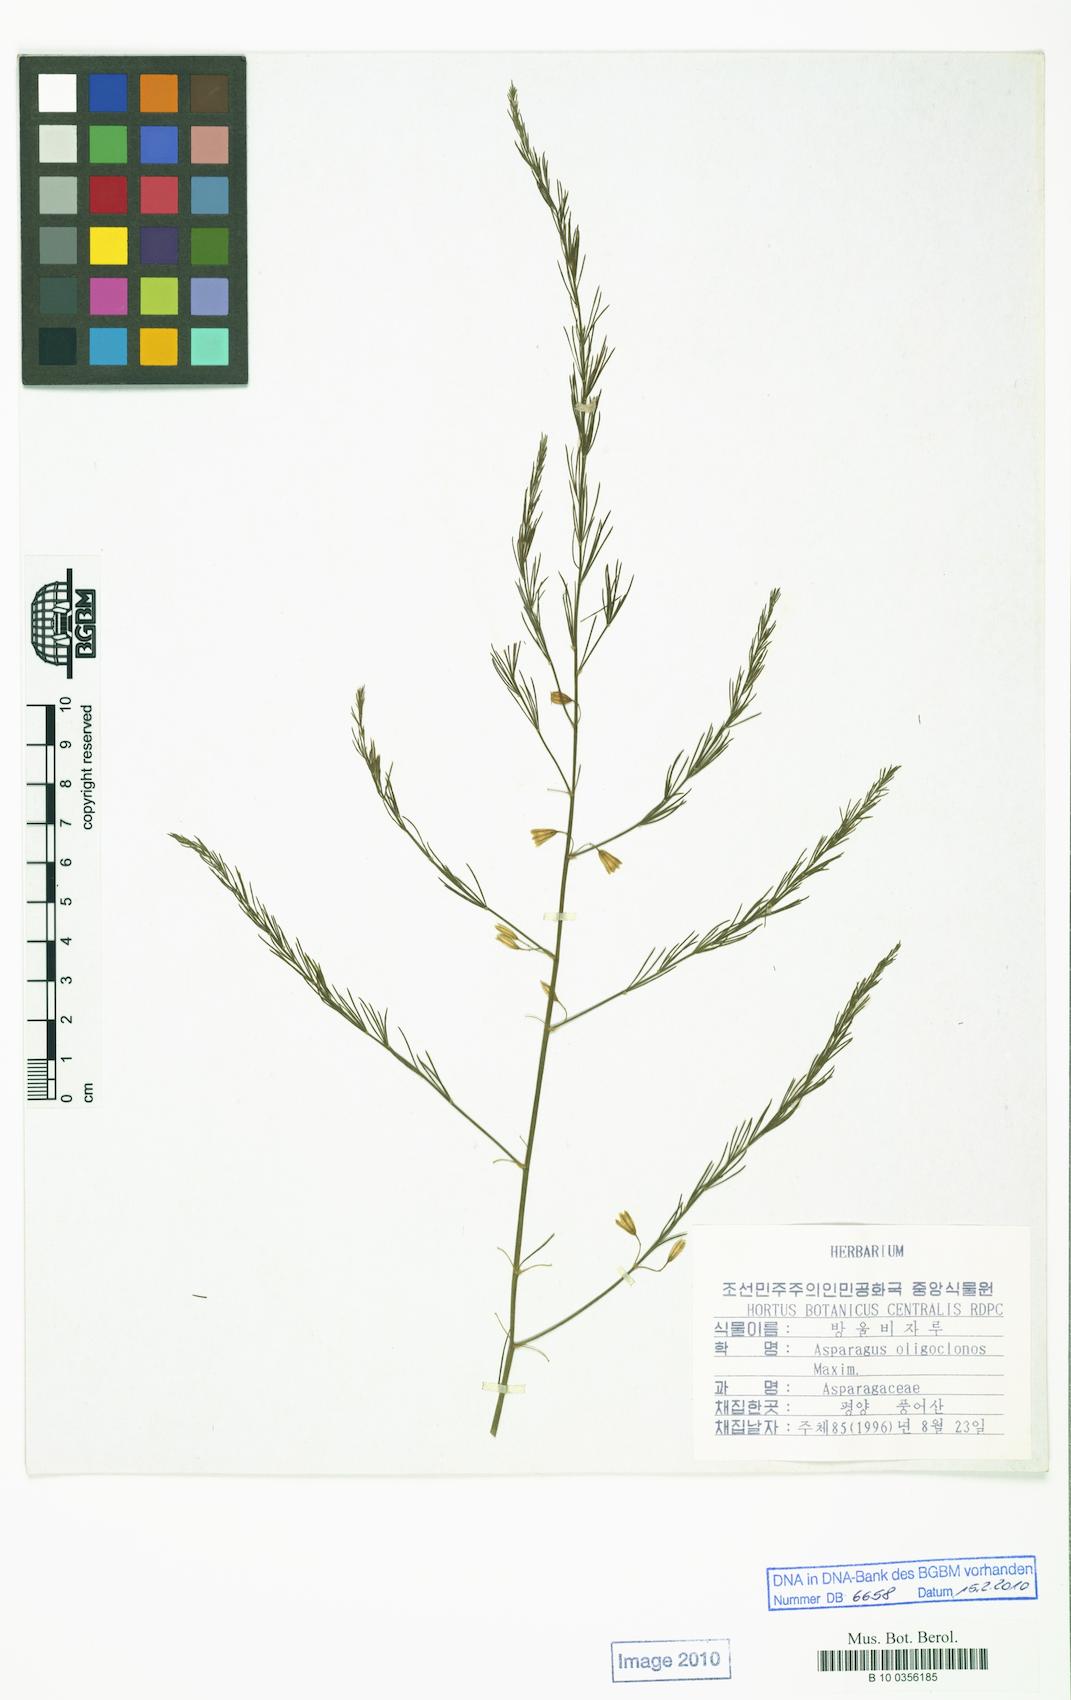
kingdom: Plantae
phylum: Tracheophyta
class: Liliopsida
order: Asparagales
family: Asparagaceae
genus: Asparagus
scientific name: Asparagus oligoclonos
